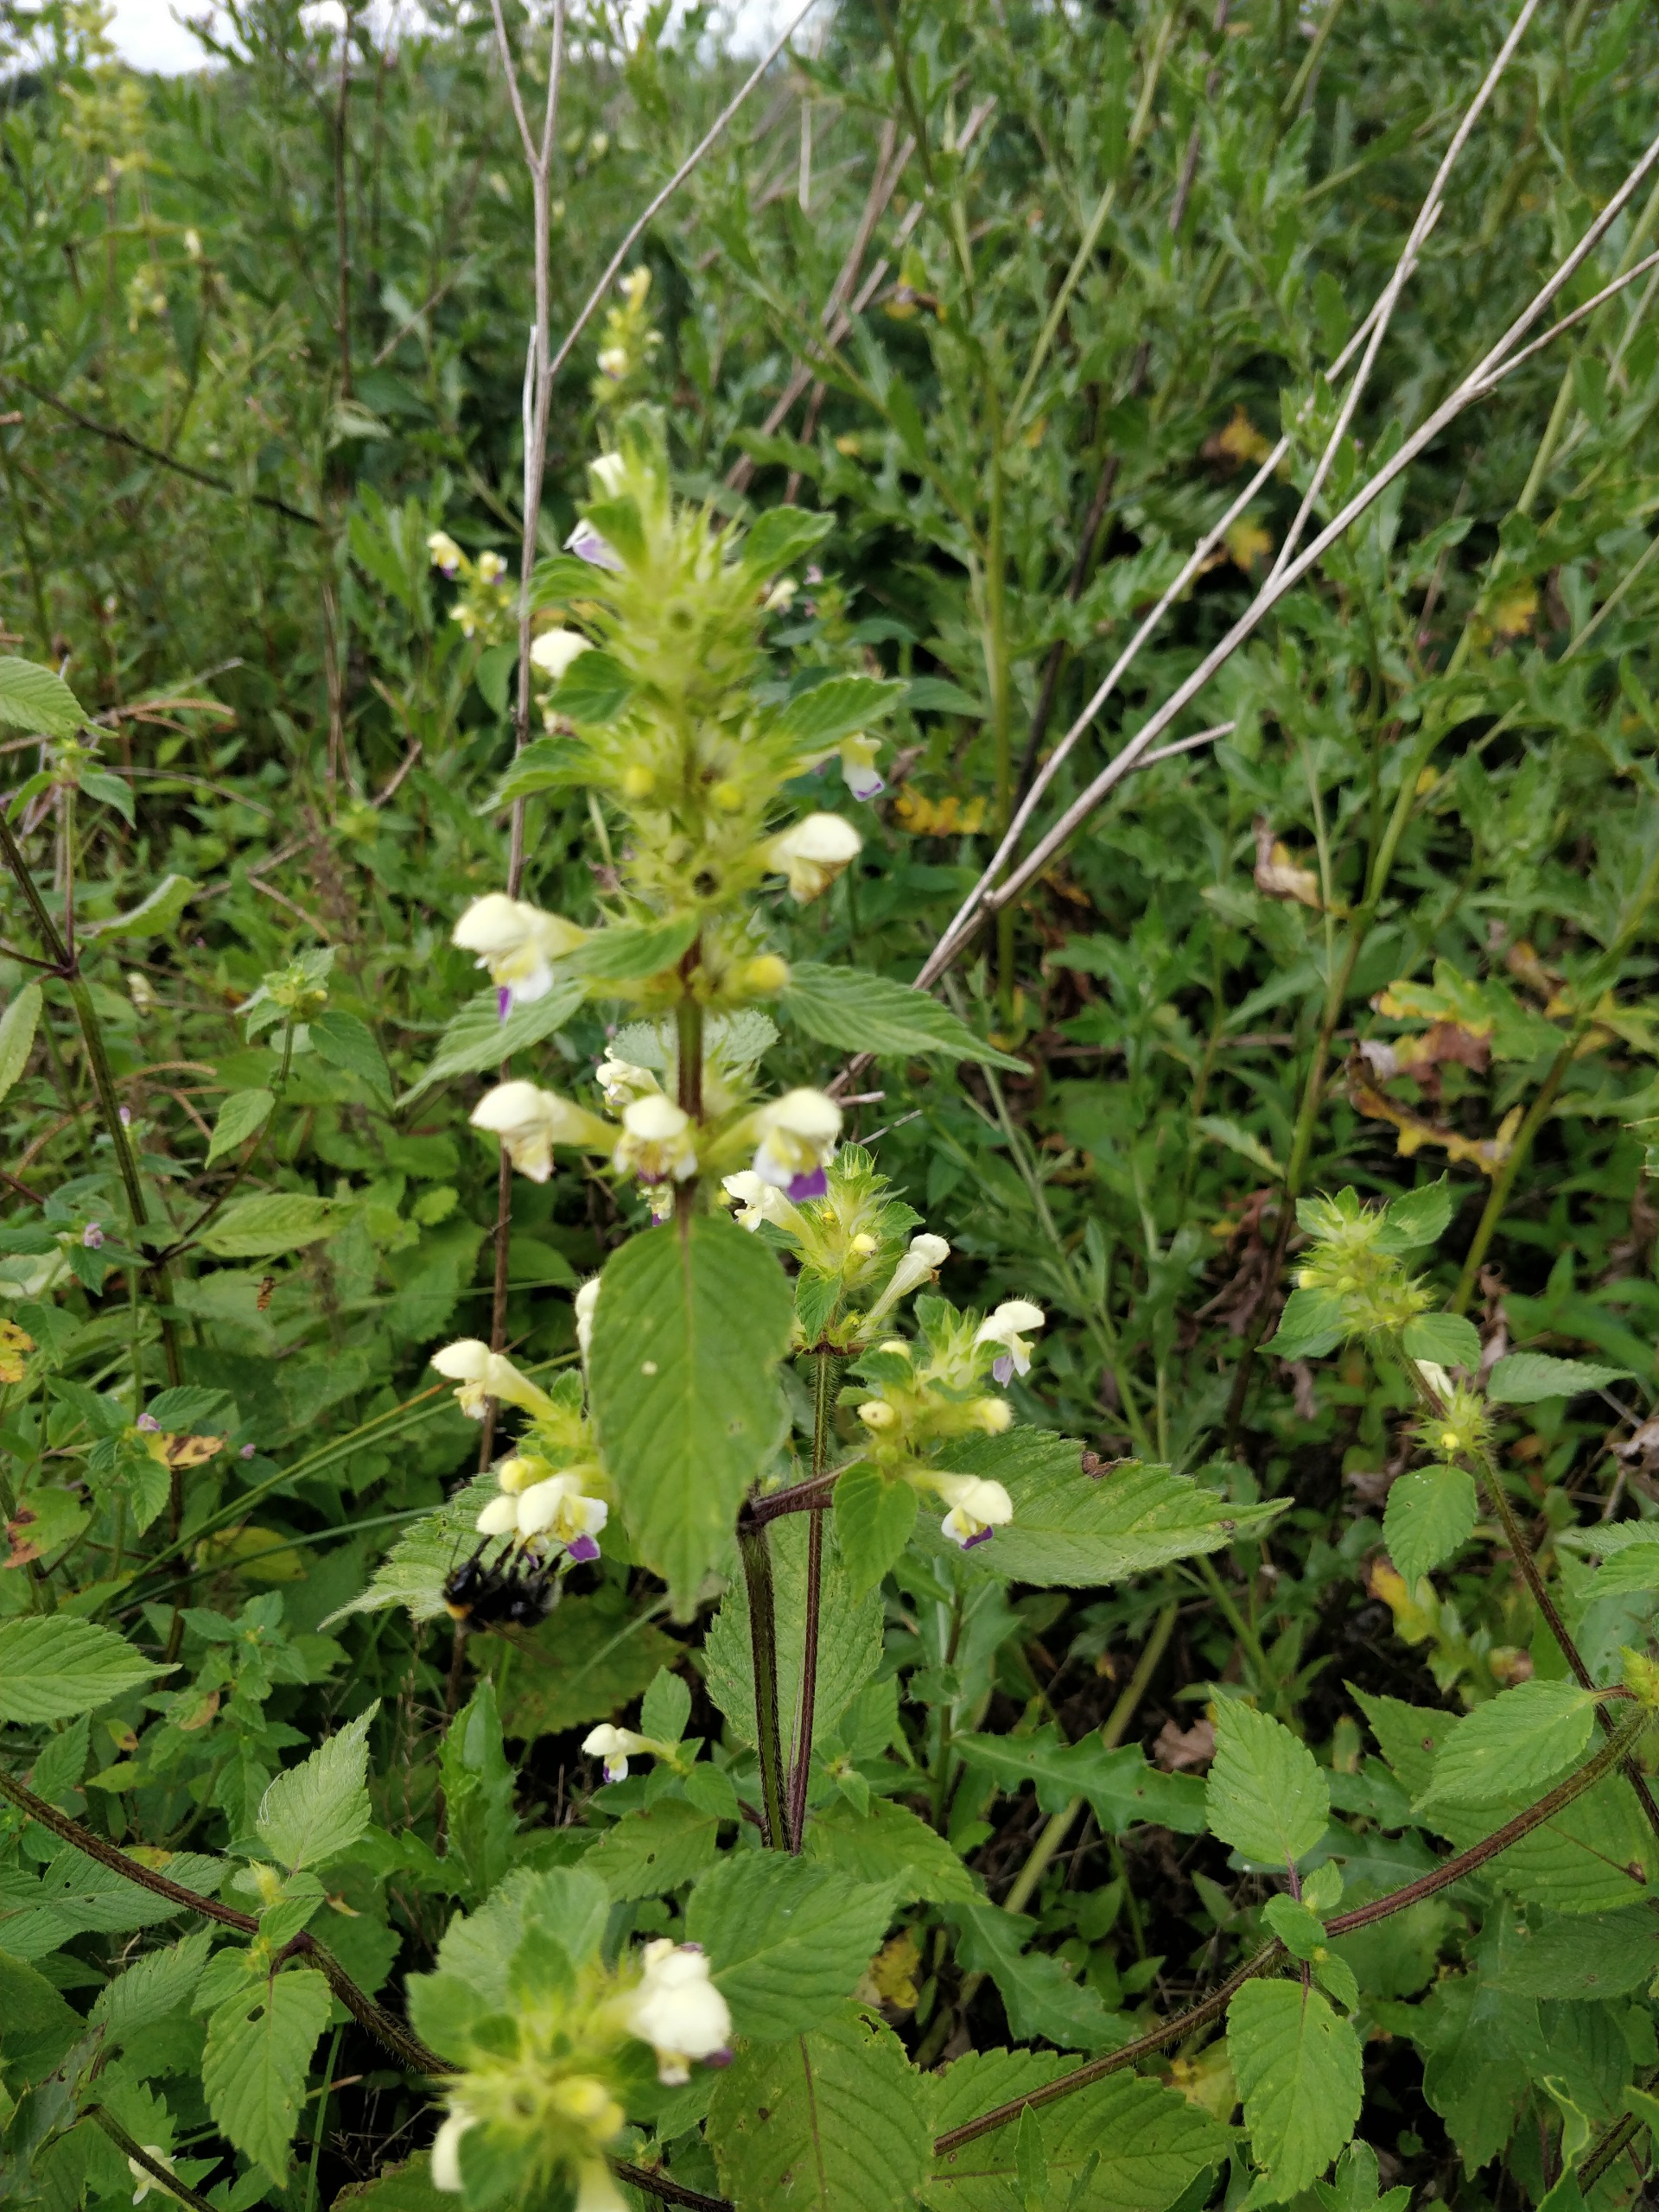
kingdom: Plantae
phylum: Tracheophyta
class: Magnoliopsida
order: Lamiales
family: Lamiaceae
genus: Galeopsis
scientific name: Galeopsis speciosa
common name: Hamp-hanekro
